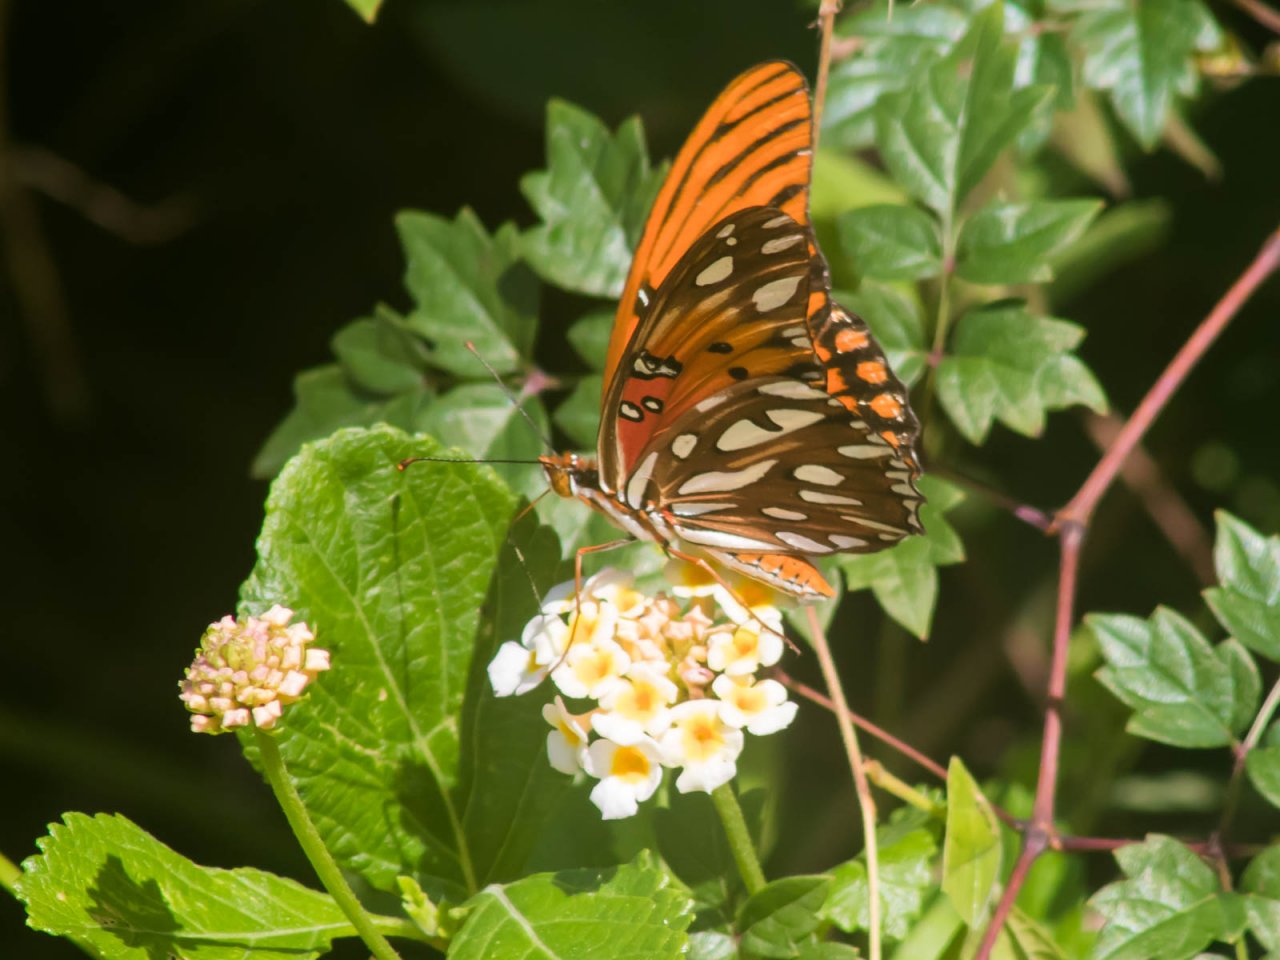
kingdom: Animalia
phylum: Arthropoda
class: Insecta
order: Lepidoptera
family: Nymphalidae
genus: Dione
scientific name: Dione vanillae
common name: Gulf Fritillary
